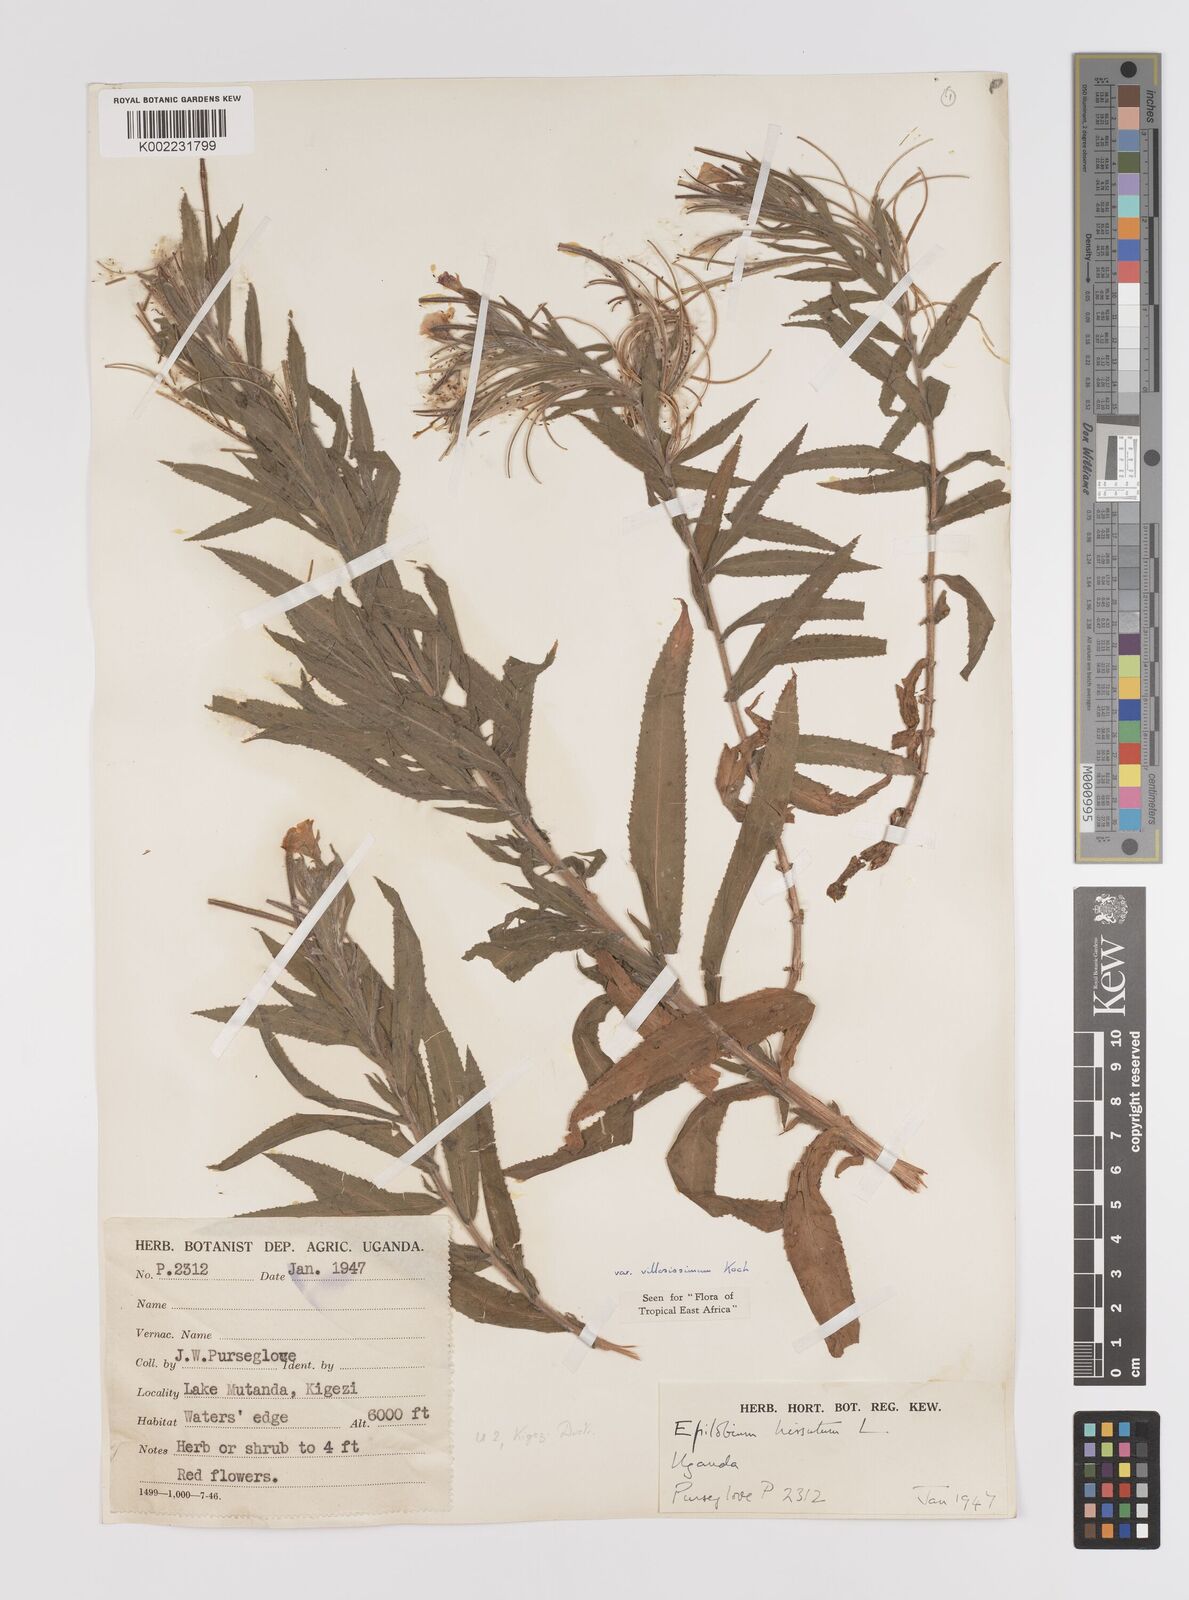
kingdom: Plantae
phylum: Tracheophyta
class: Magnoliopsida
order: Myrtales
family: Onagraceae
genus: Epilobium
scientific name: Epilobium hirsutum
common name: Great willowherb
